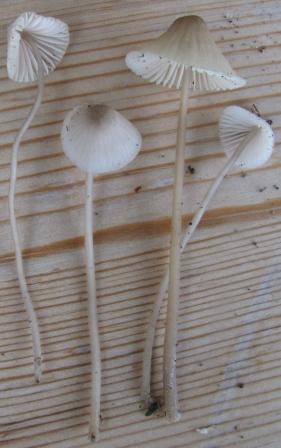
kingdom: Fungi
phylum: Basidiomycota
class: Agaricomycetes
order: Agaricales
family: Mycenaceae
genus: Mycena
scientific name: Mycena galopus
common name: hvidmælket huesvamp
